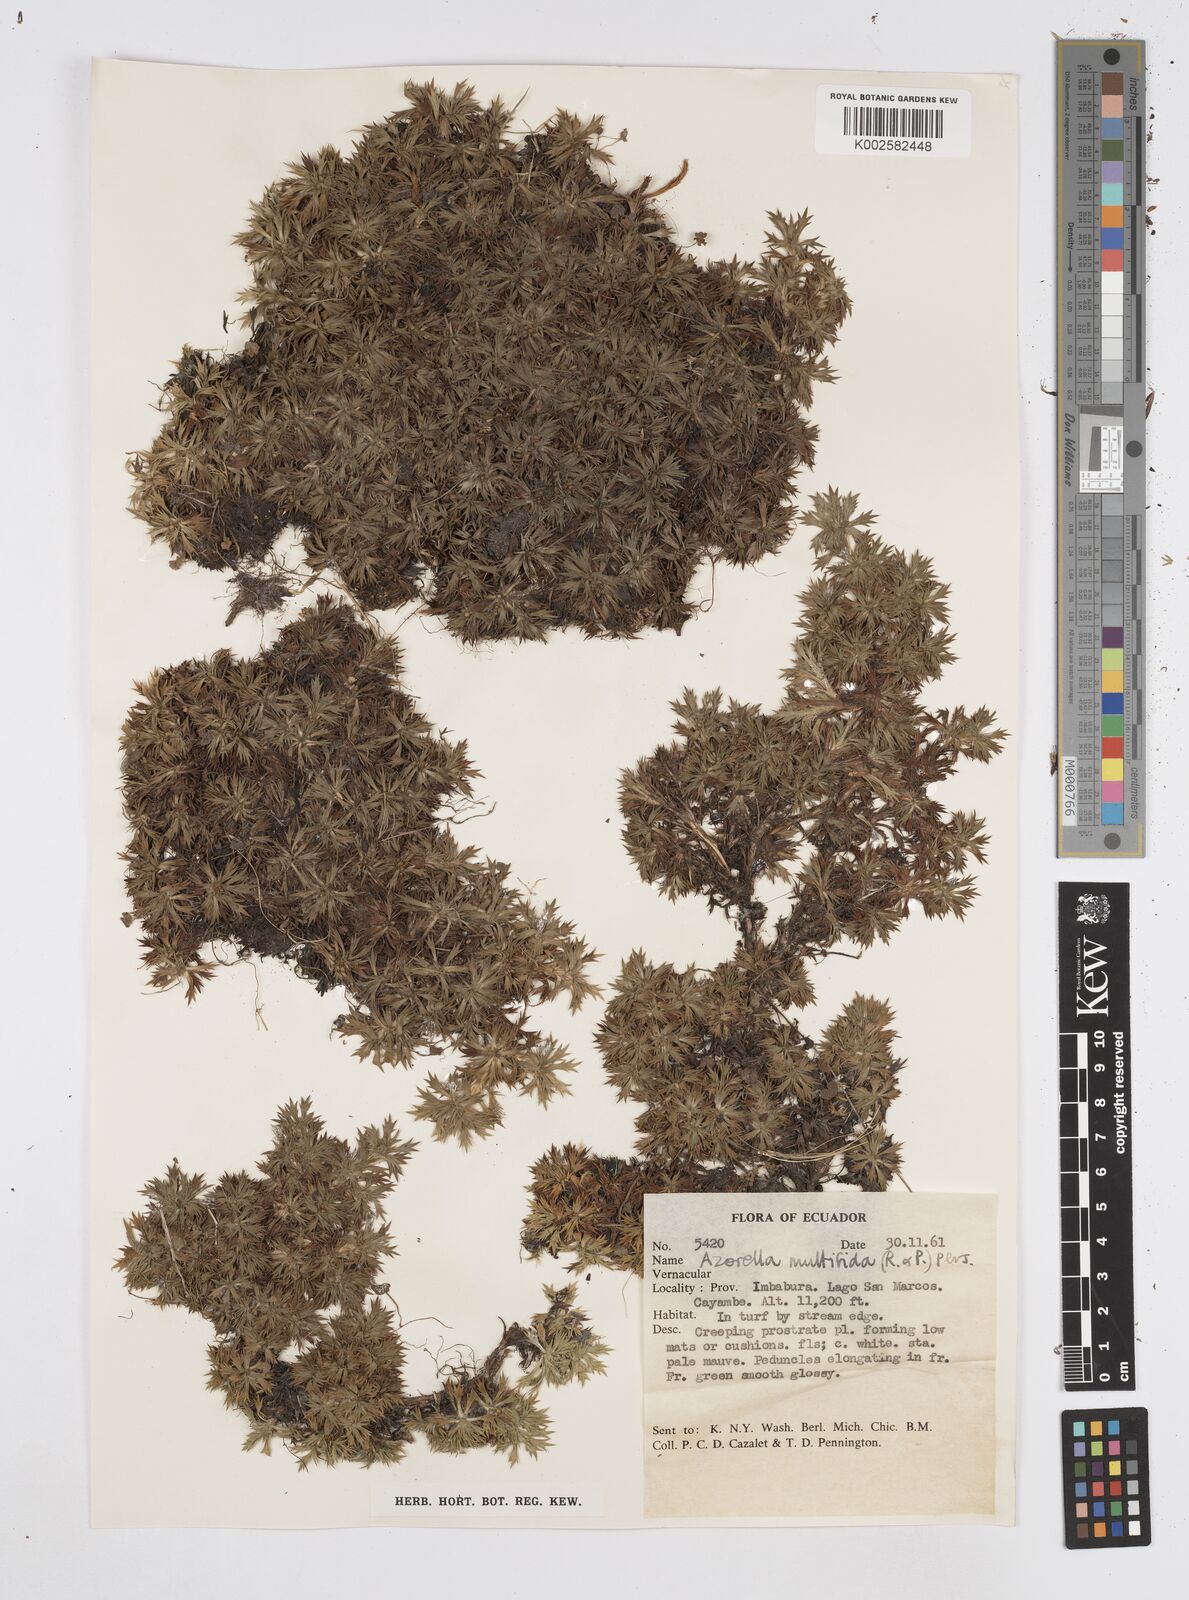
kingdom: Plantae
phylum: Tracheophyta
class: Magnoliopsida
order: Apiales
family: Apiaceae
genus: Azorella
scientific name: Azorella multifida
